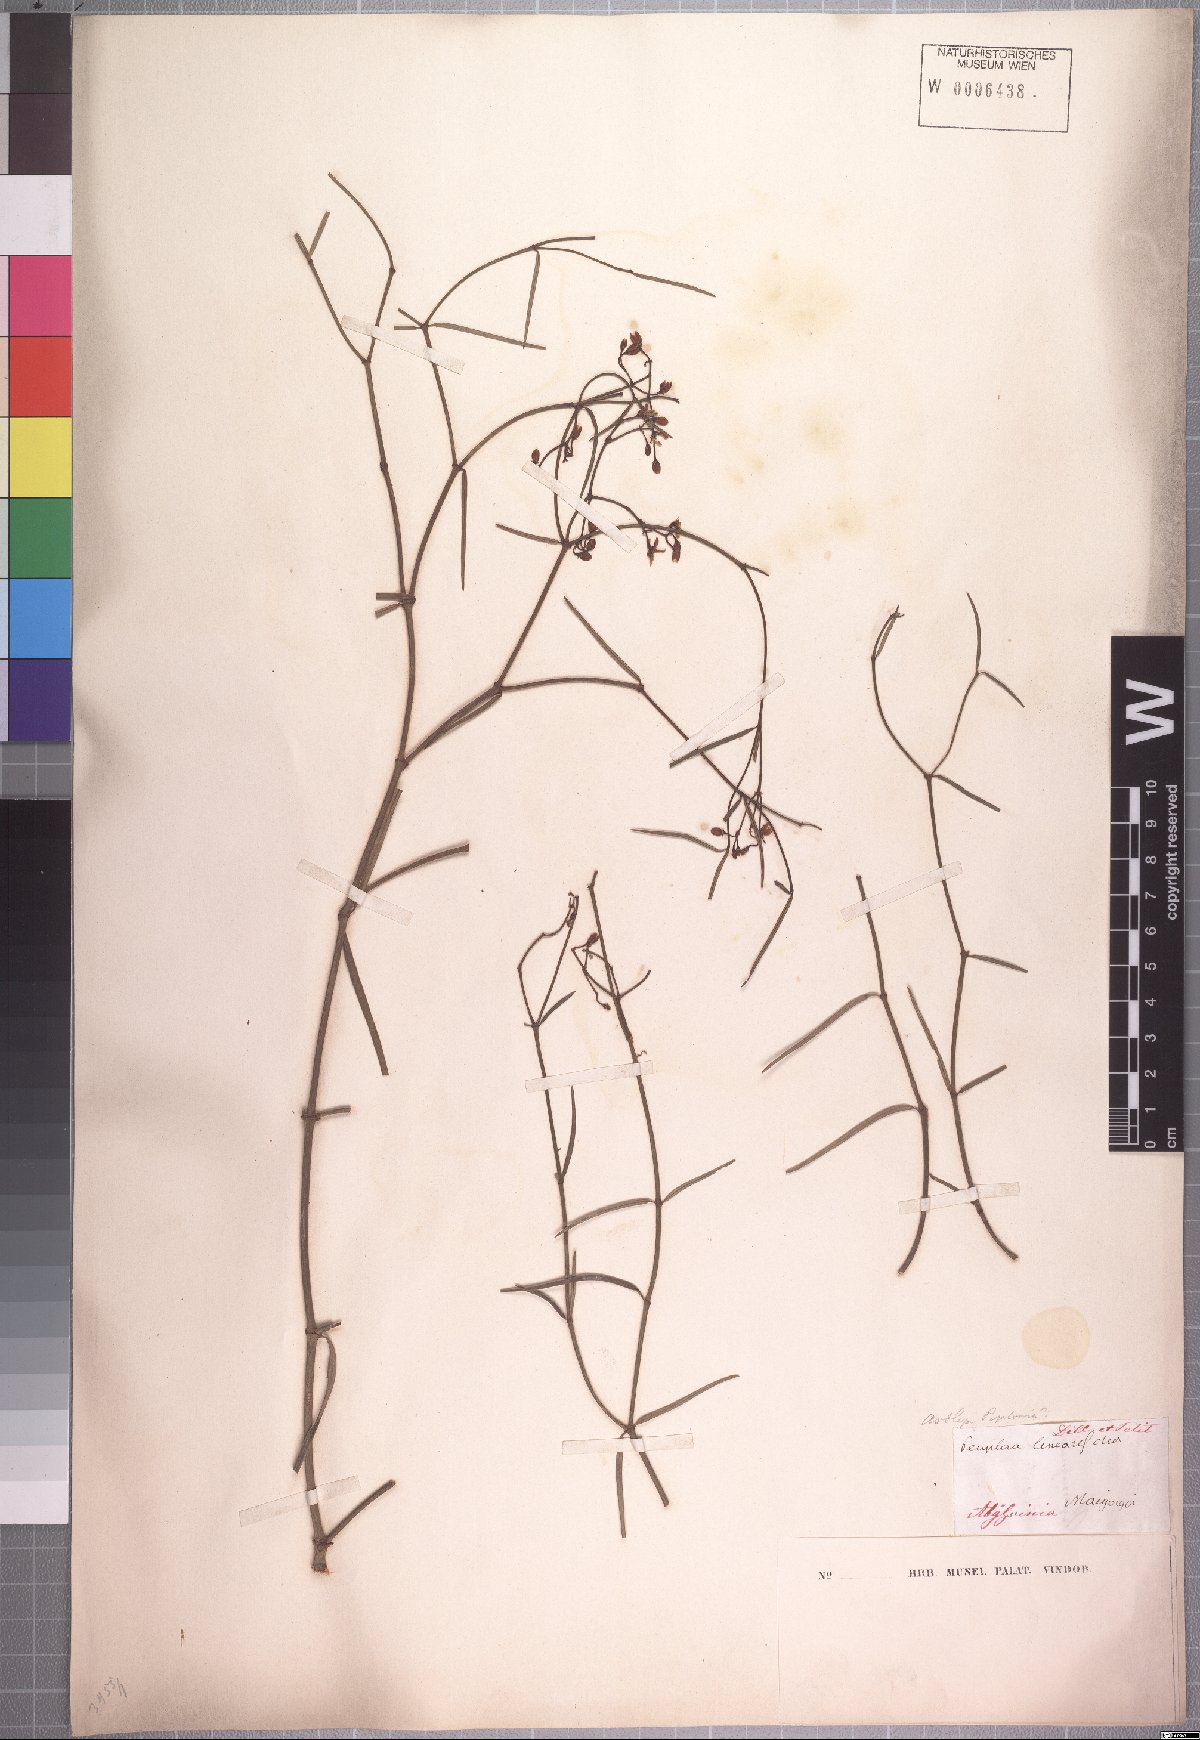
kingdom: Plantae
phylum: Tracheophyta
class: Magnoliopsida
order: Gentianales
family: Apocynaceae
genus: Periploca
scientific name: Periploca linearifolia
